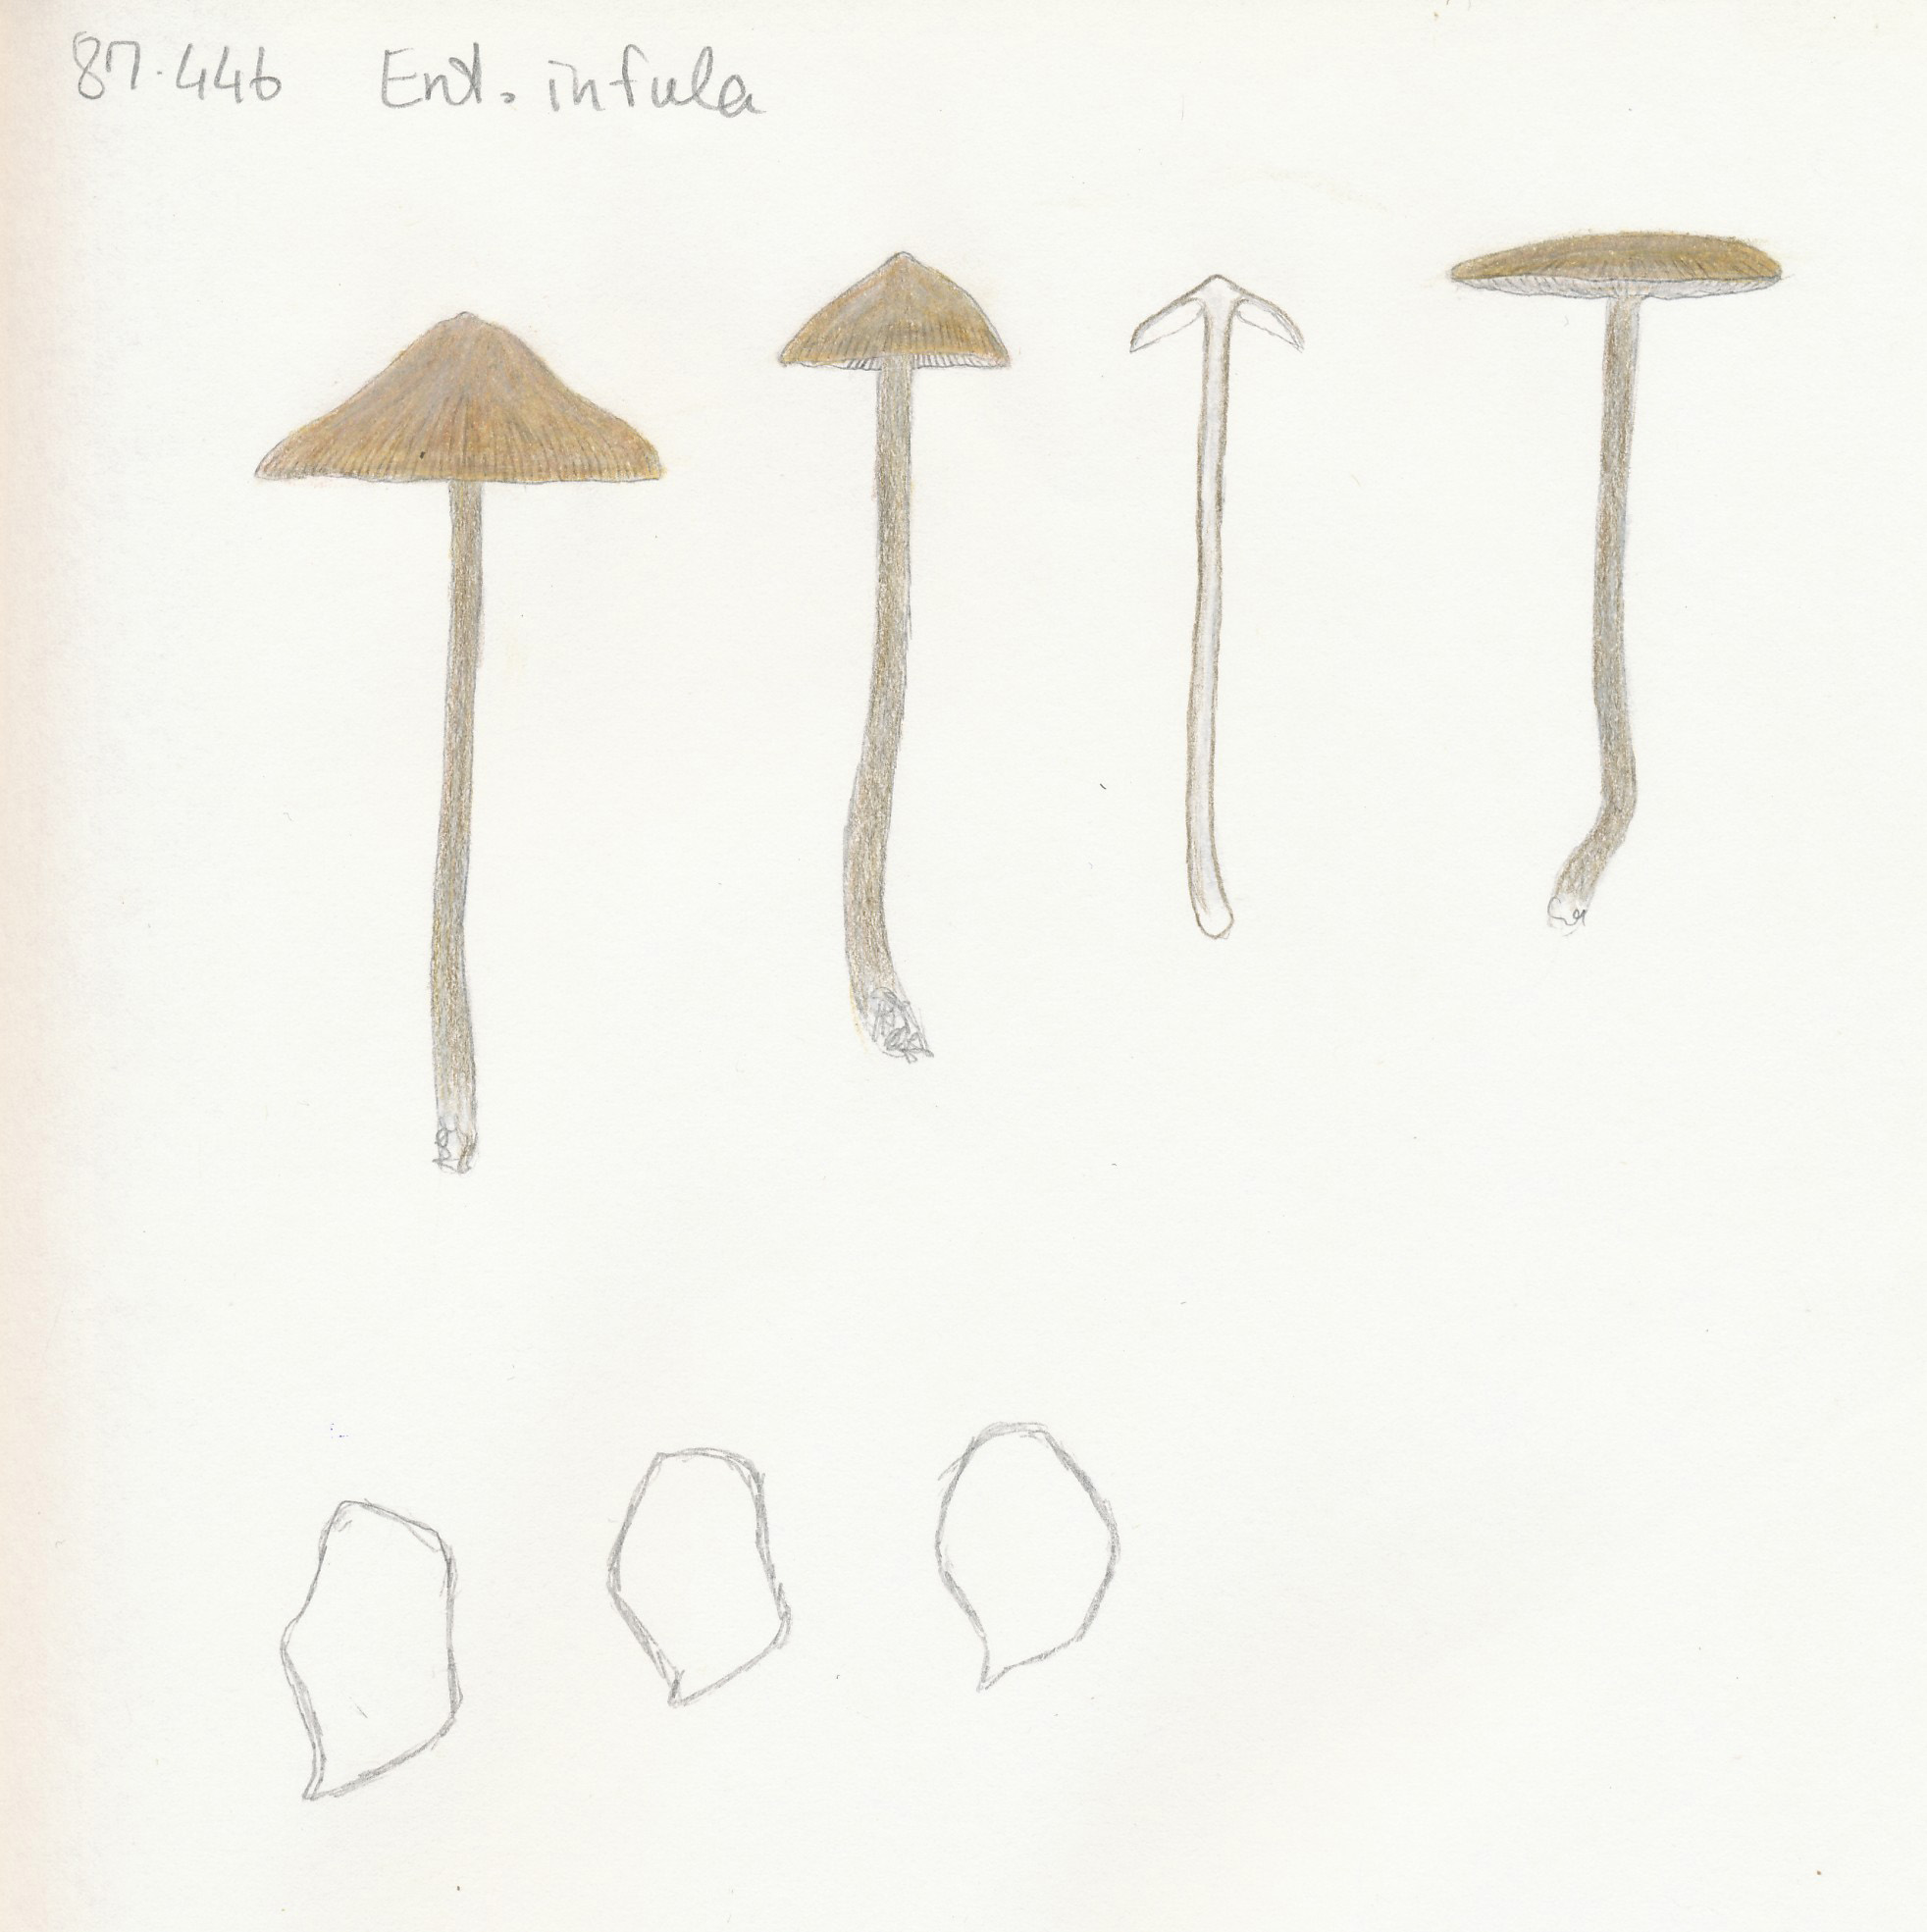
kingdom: Fungi
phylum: Basidiomycota
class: Agaricomycetes
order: Agaricales
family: Entolomataceae
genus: Entoloma
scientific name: Entoloma infula
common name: hvidbladet rødblad
